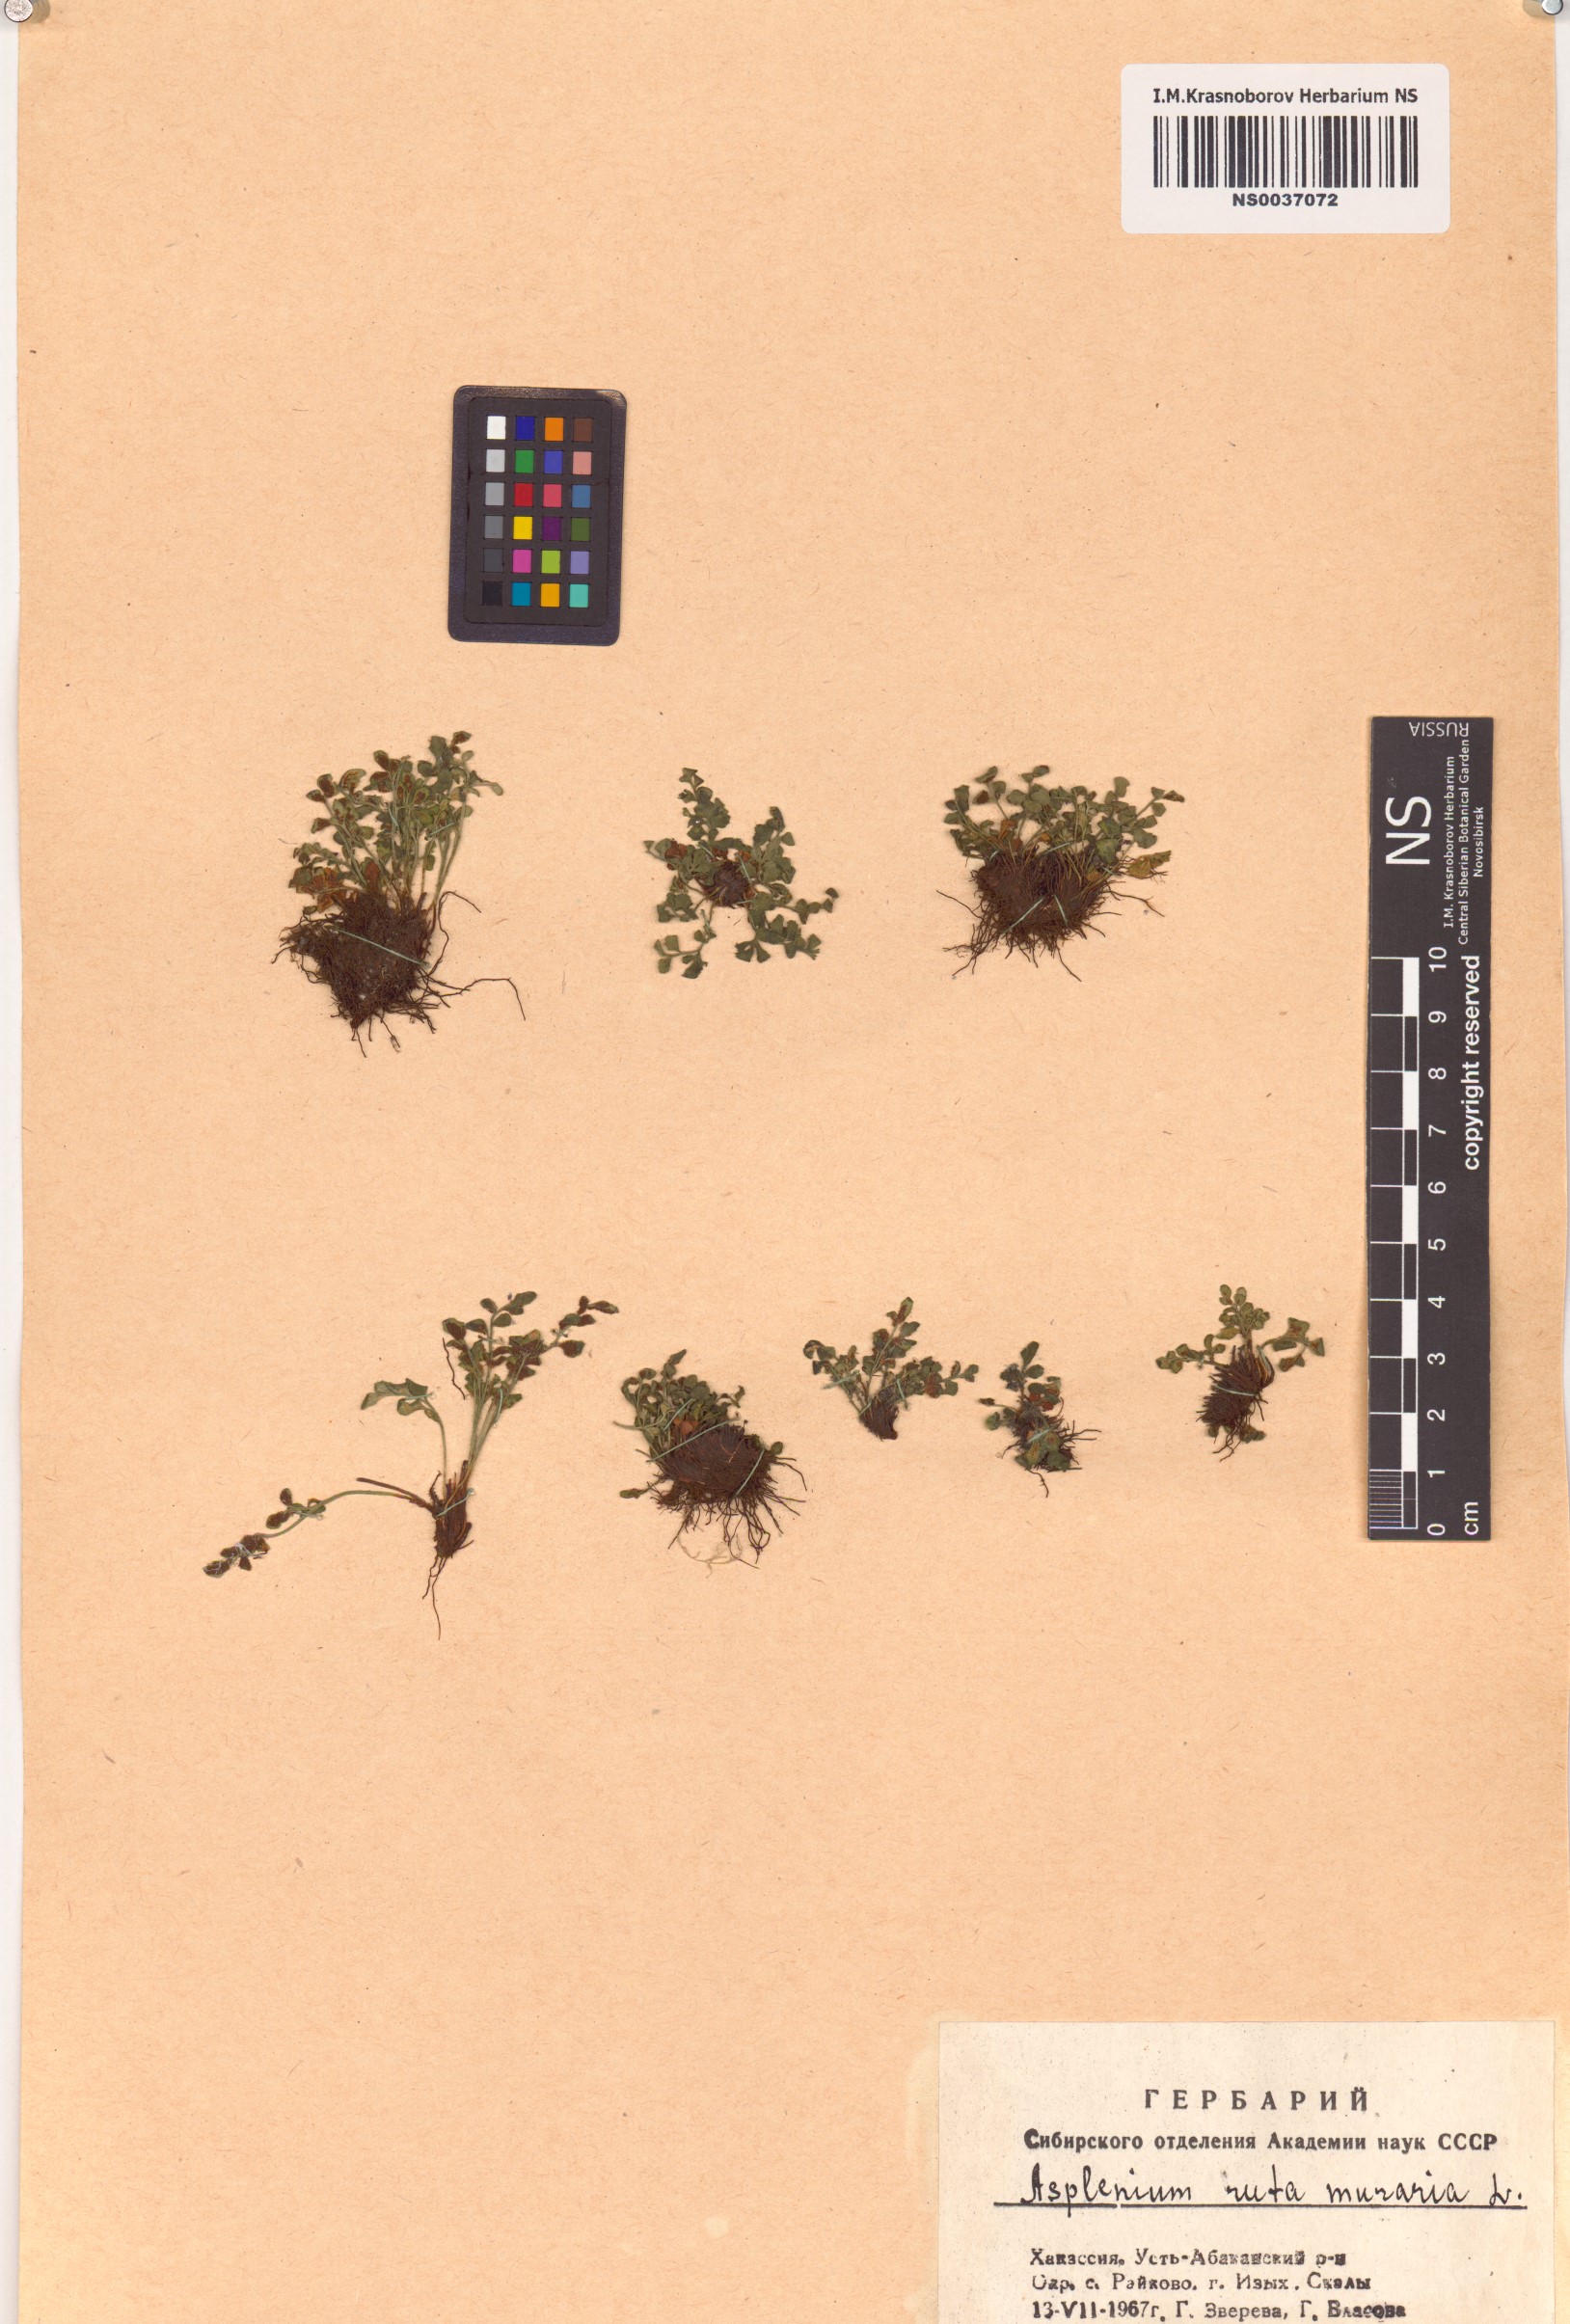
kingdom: Plantae
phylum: Tracheophyta
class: Polypodiopsida
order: Polypodiales
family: Aspleniaceae
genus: Asplenium
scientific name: Asplenium ruta-muraria
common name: Wall-rue
